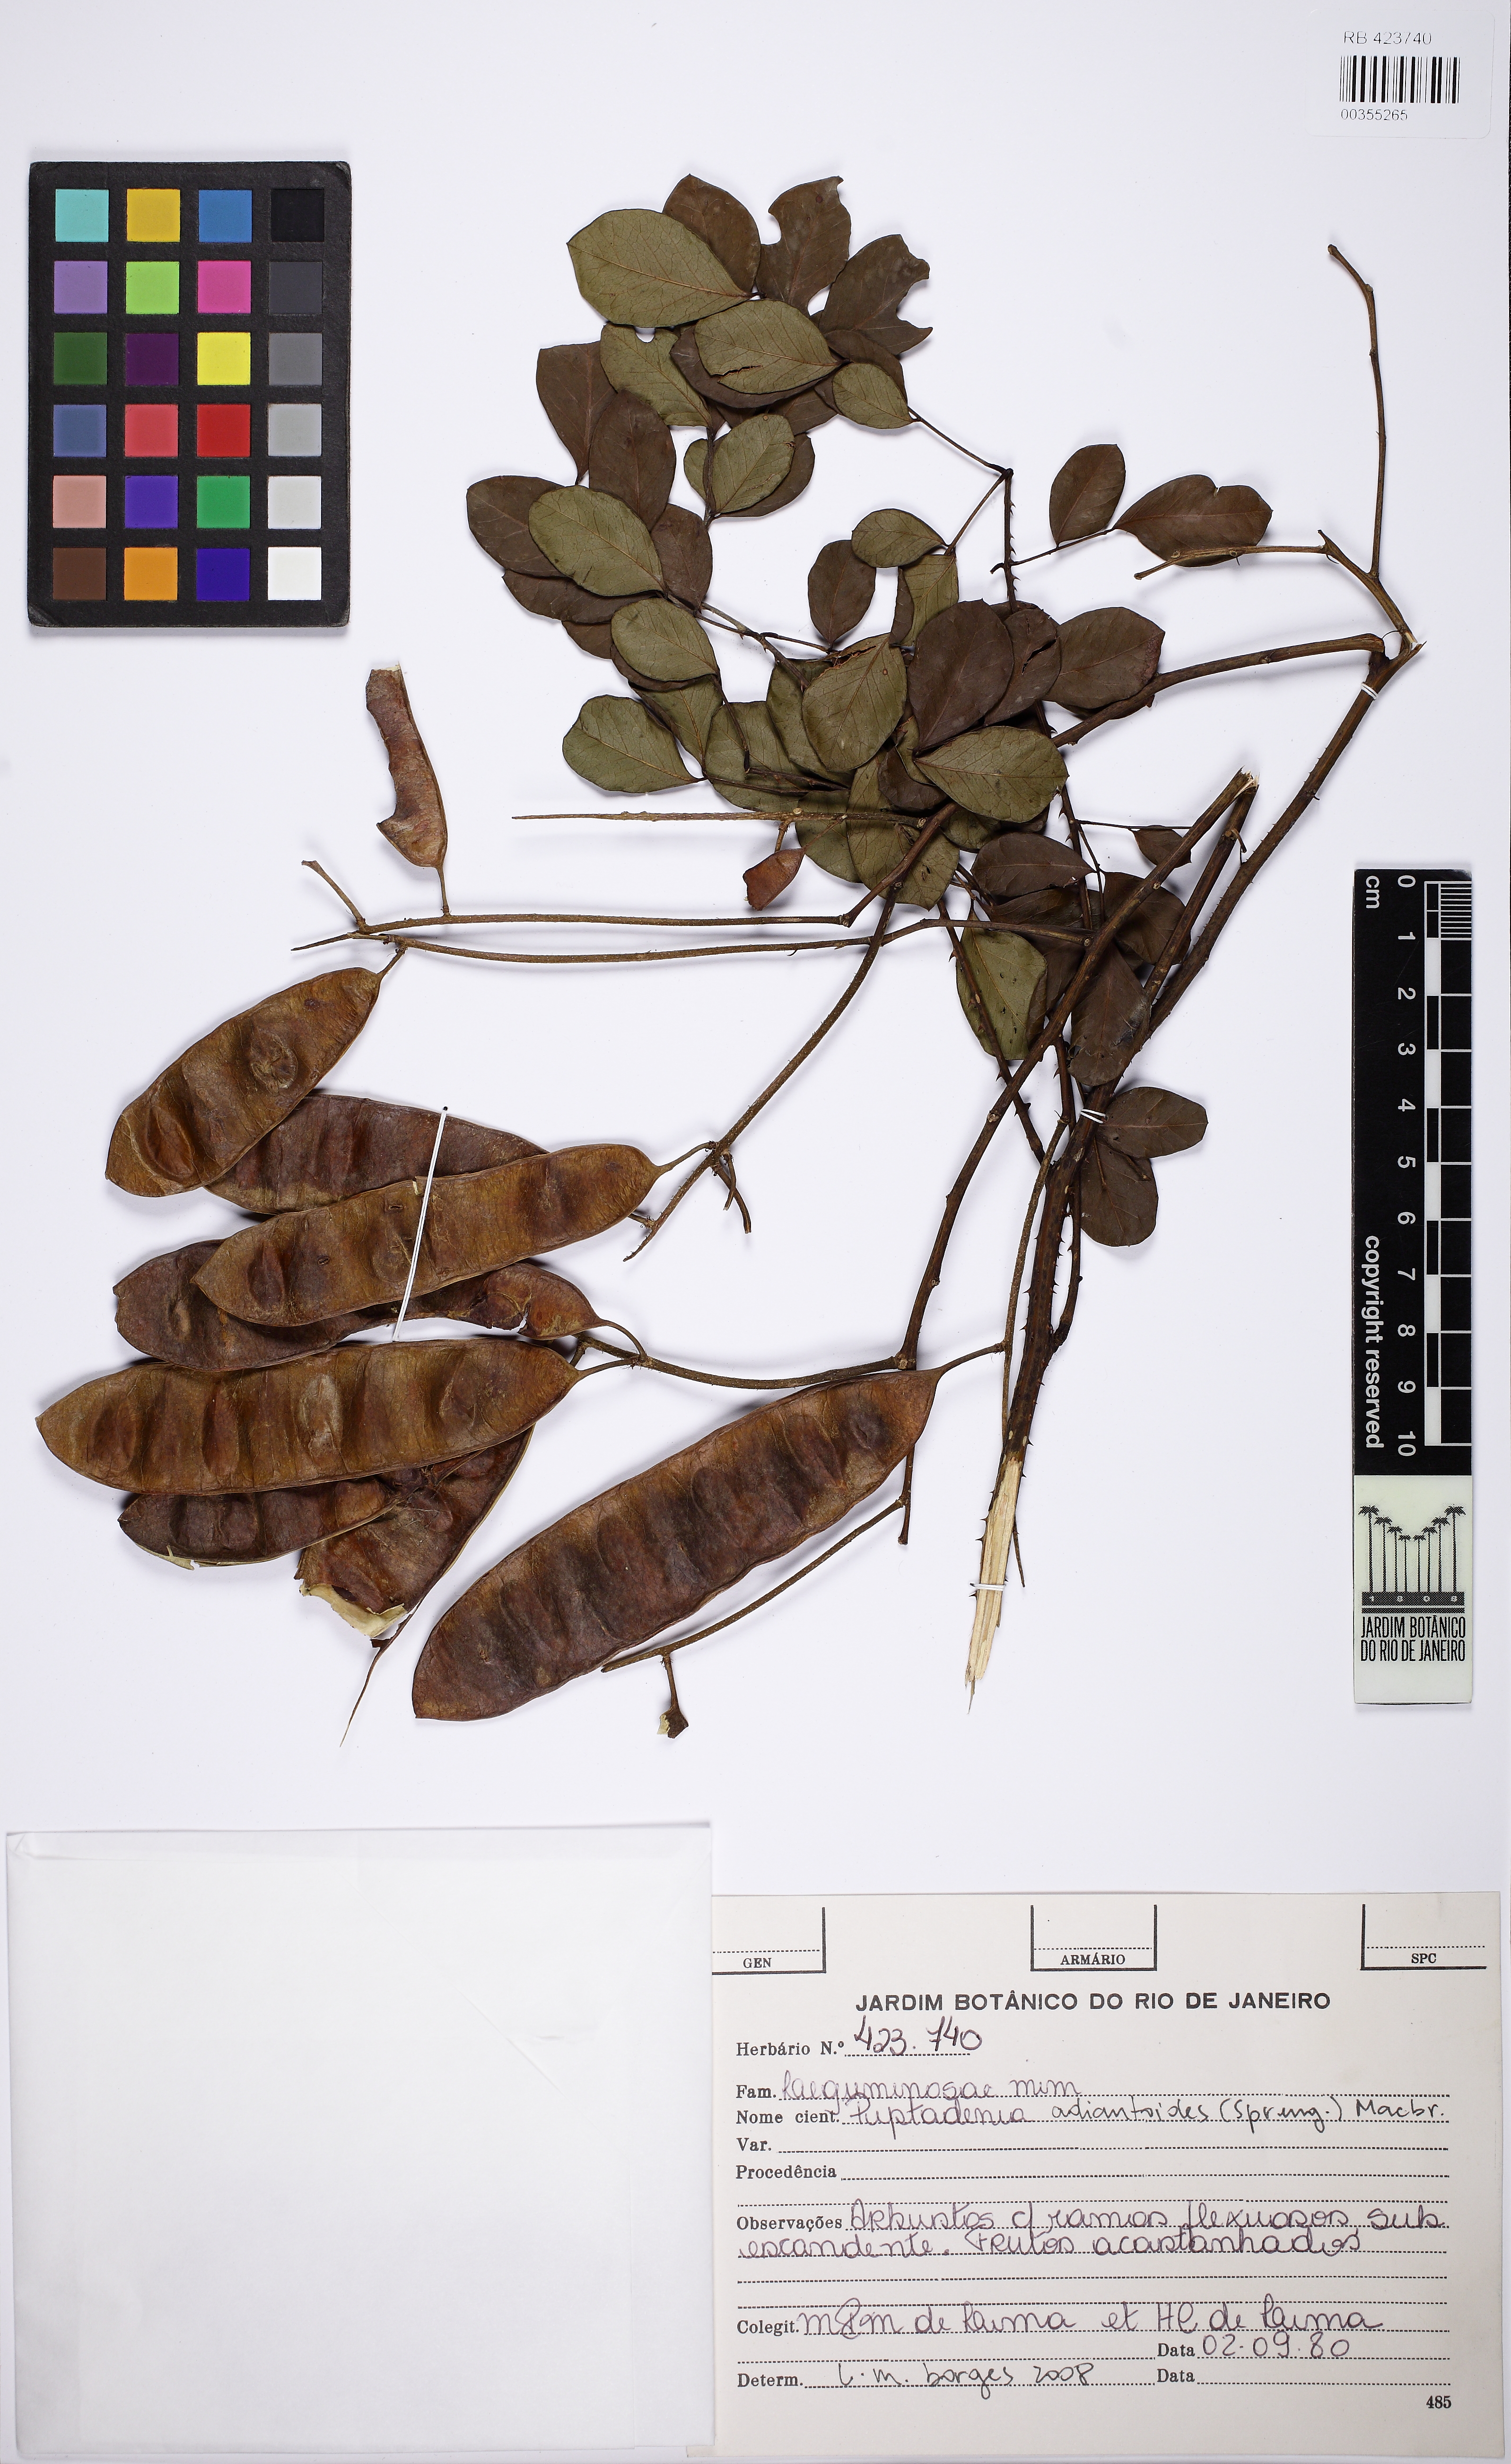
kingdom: Plantae
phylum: Tracheophyta
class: Magnoliopsida
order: Fabales
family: Fabaceae
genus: Piptadenia
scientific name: Piptadenia adiantoides
